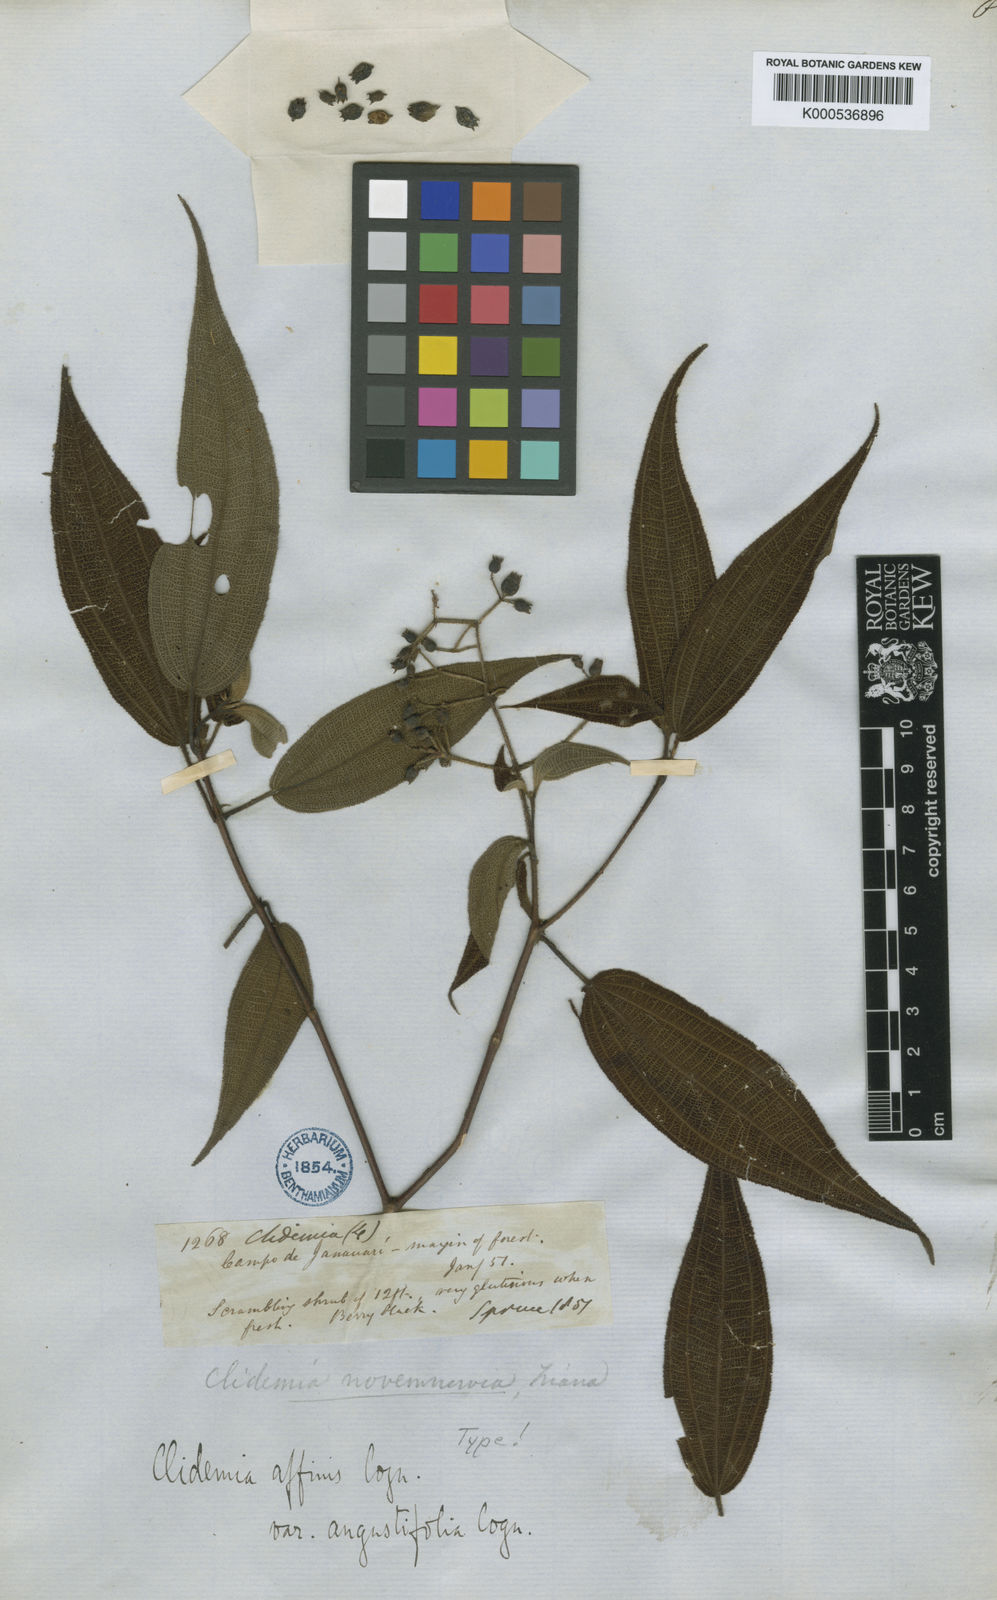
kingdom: Plantae
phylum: Tracheophyta
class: Magnoliopsida
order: Myrtales
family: Melastomataceae
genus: Miconia
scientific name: Miconia fenestrata
